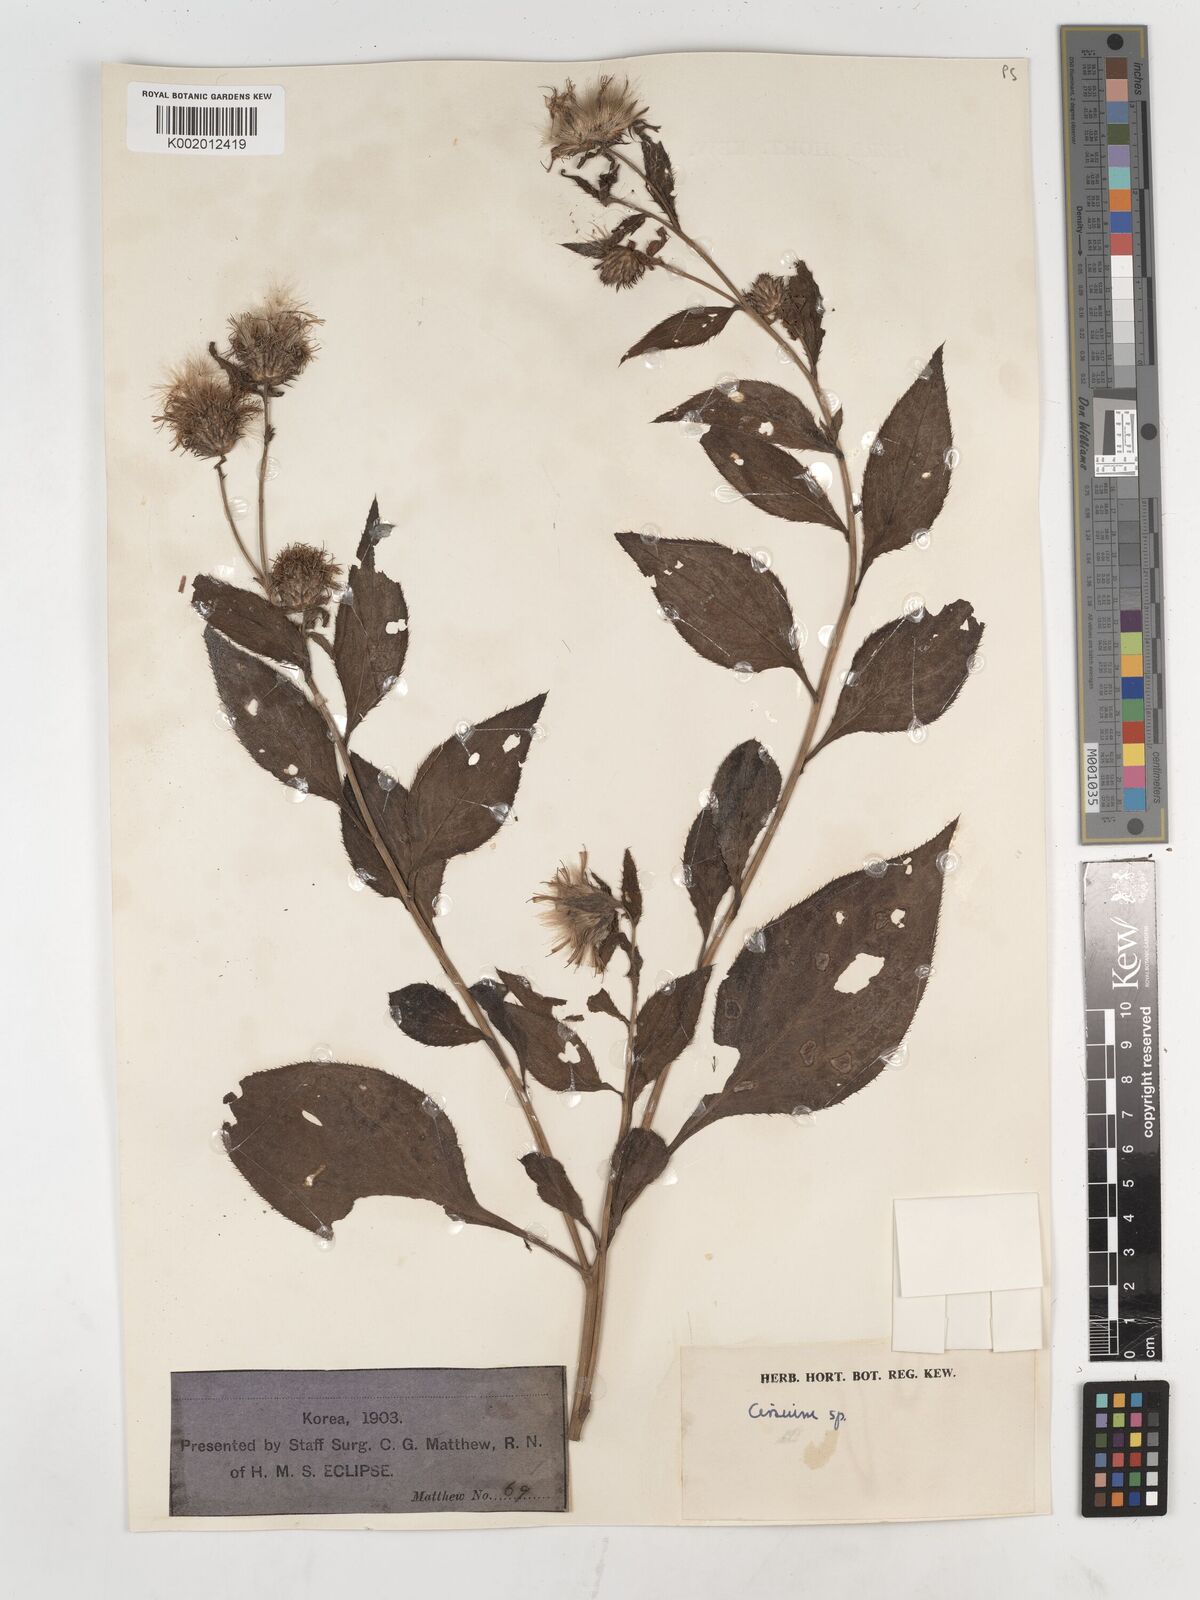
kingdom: Plantae
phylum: Tracheophyta
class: Magnoliopsida
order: Asterales
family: Asteraceae
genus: Cirsium
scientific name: Cirsium
